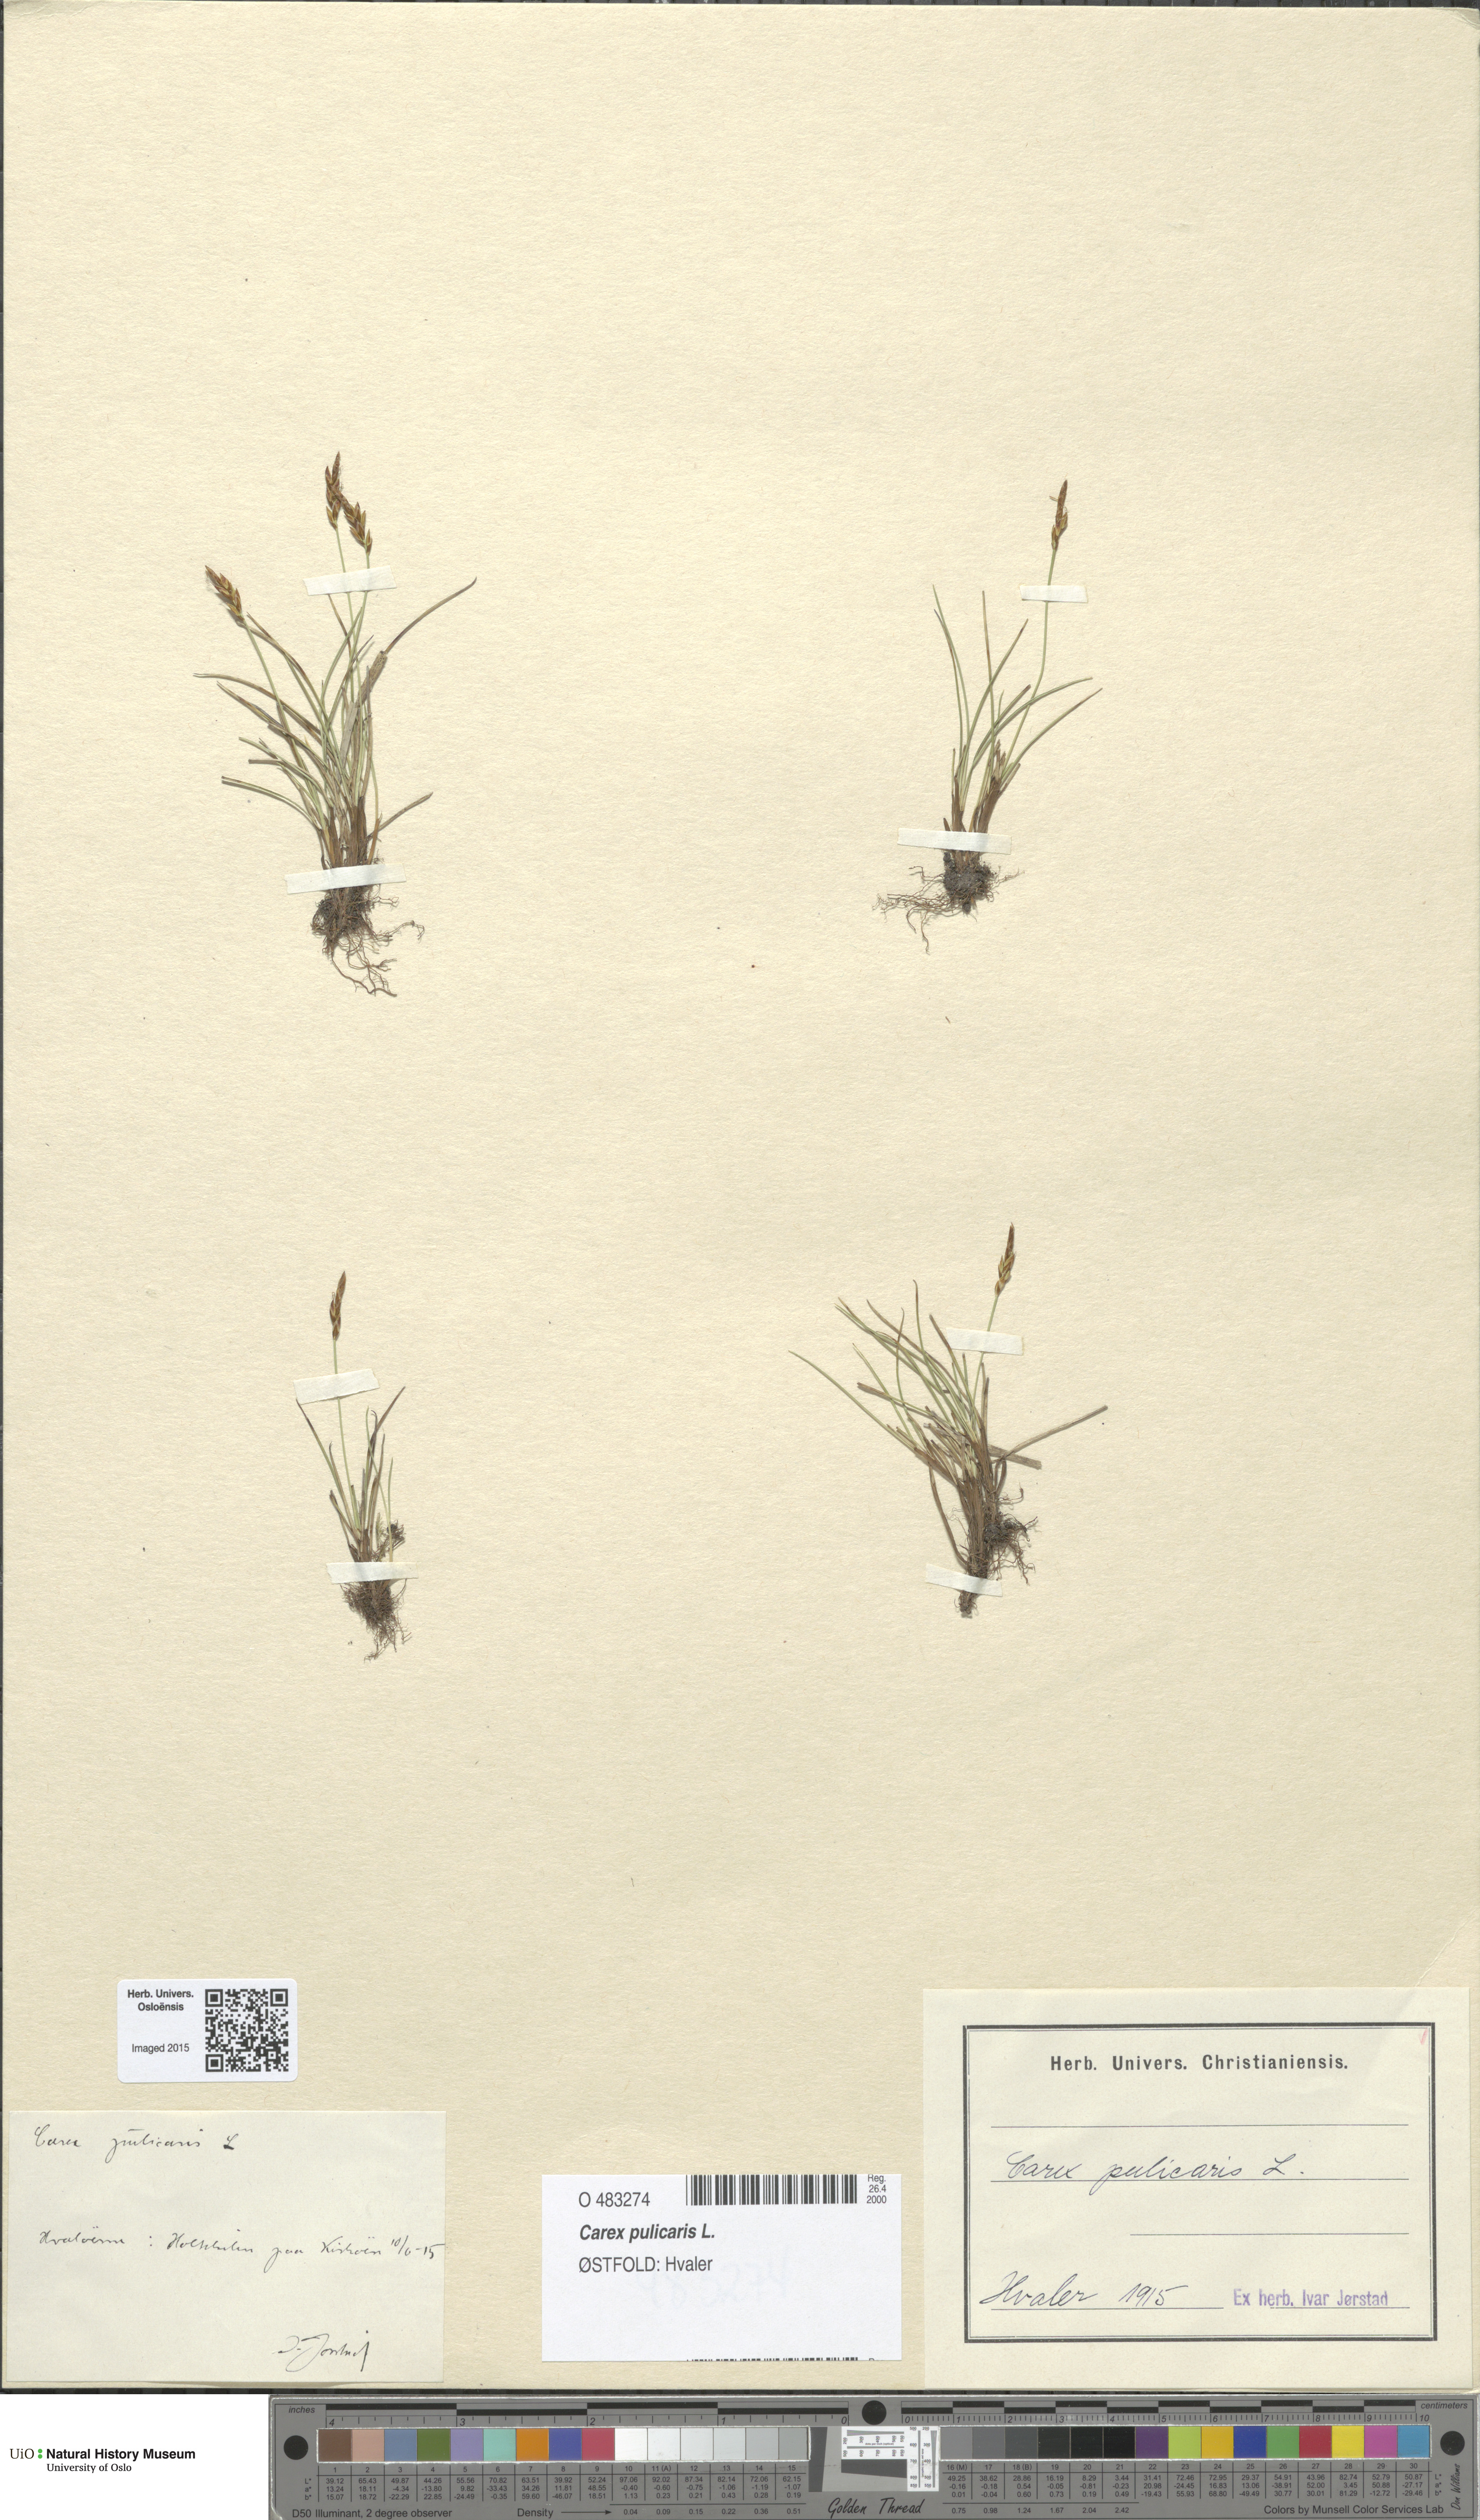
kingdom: Plantae
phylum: Tracheophyta
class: Liliopsida
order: Poales
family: Cyperaceae
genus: Carex
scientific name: Carex pulicaris
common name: Flea sedge
